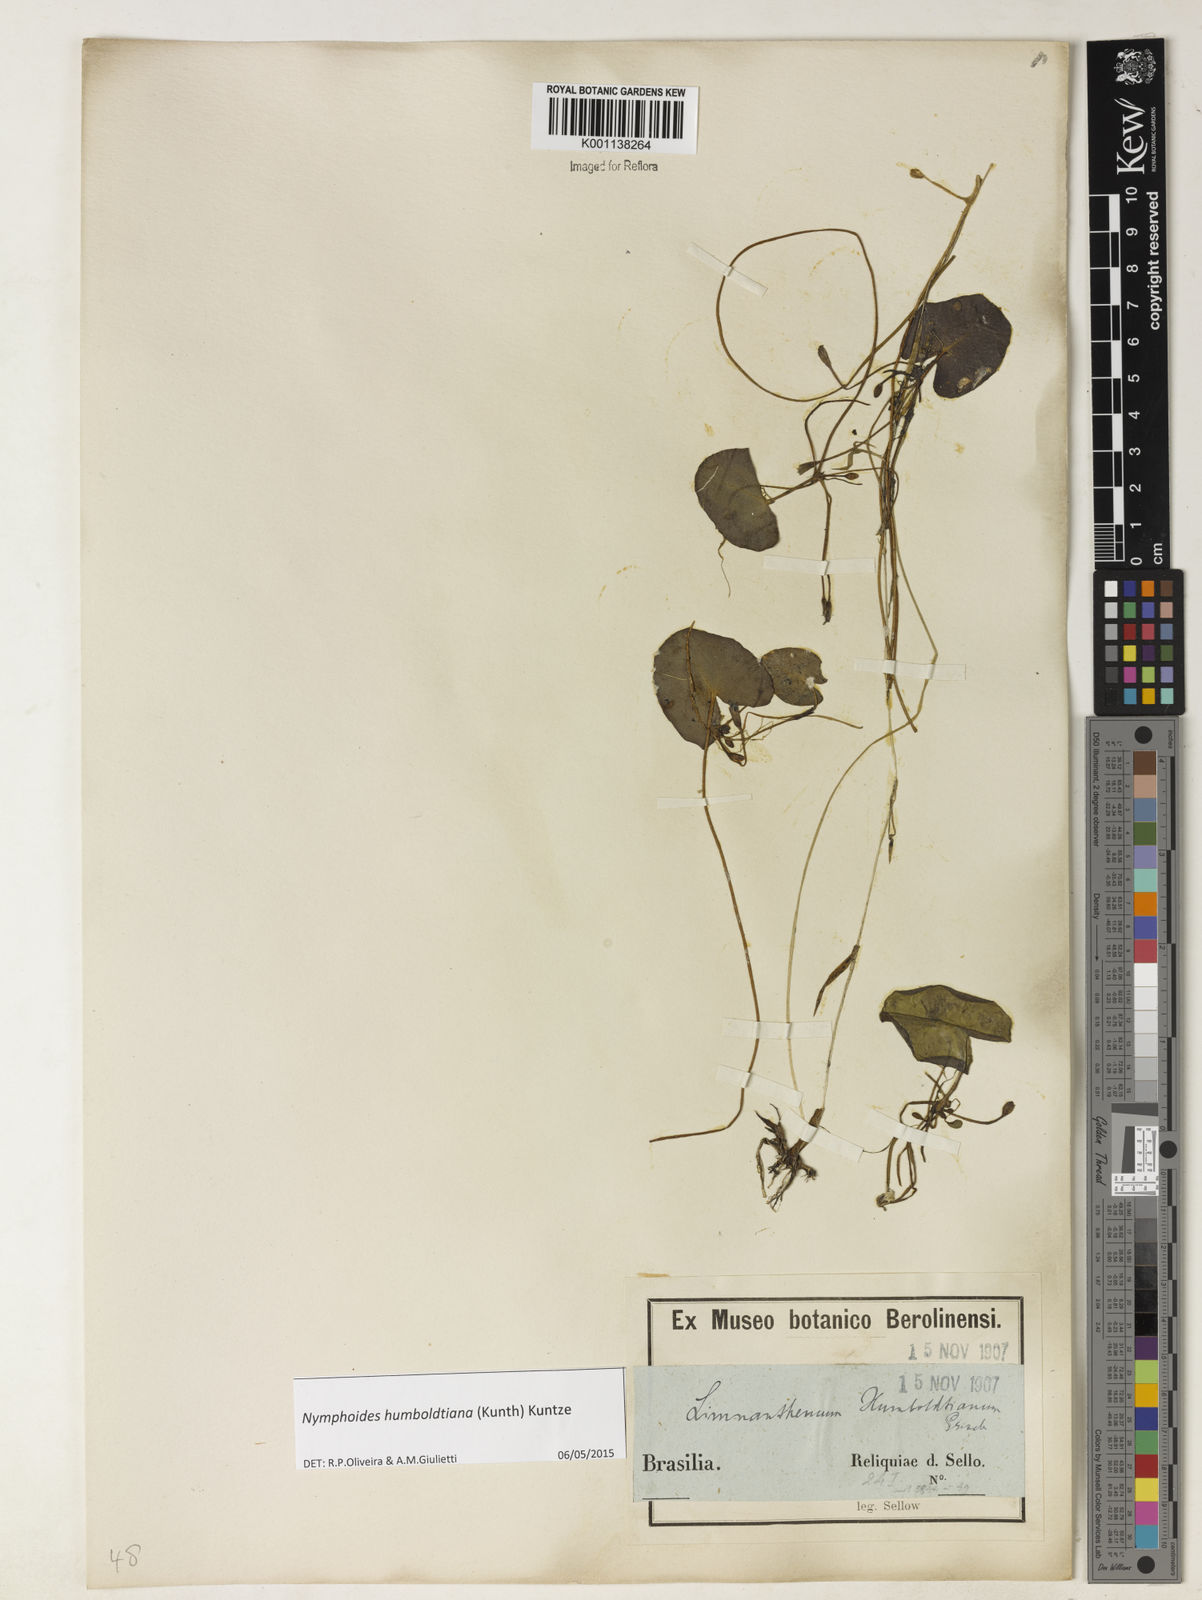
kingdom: Plantae
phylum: Tracheophyta
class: Magnoliopsida
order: Asterales
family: Menyanthaceae
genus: Nymphoides
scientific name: Nymphoides humboldtiana
